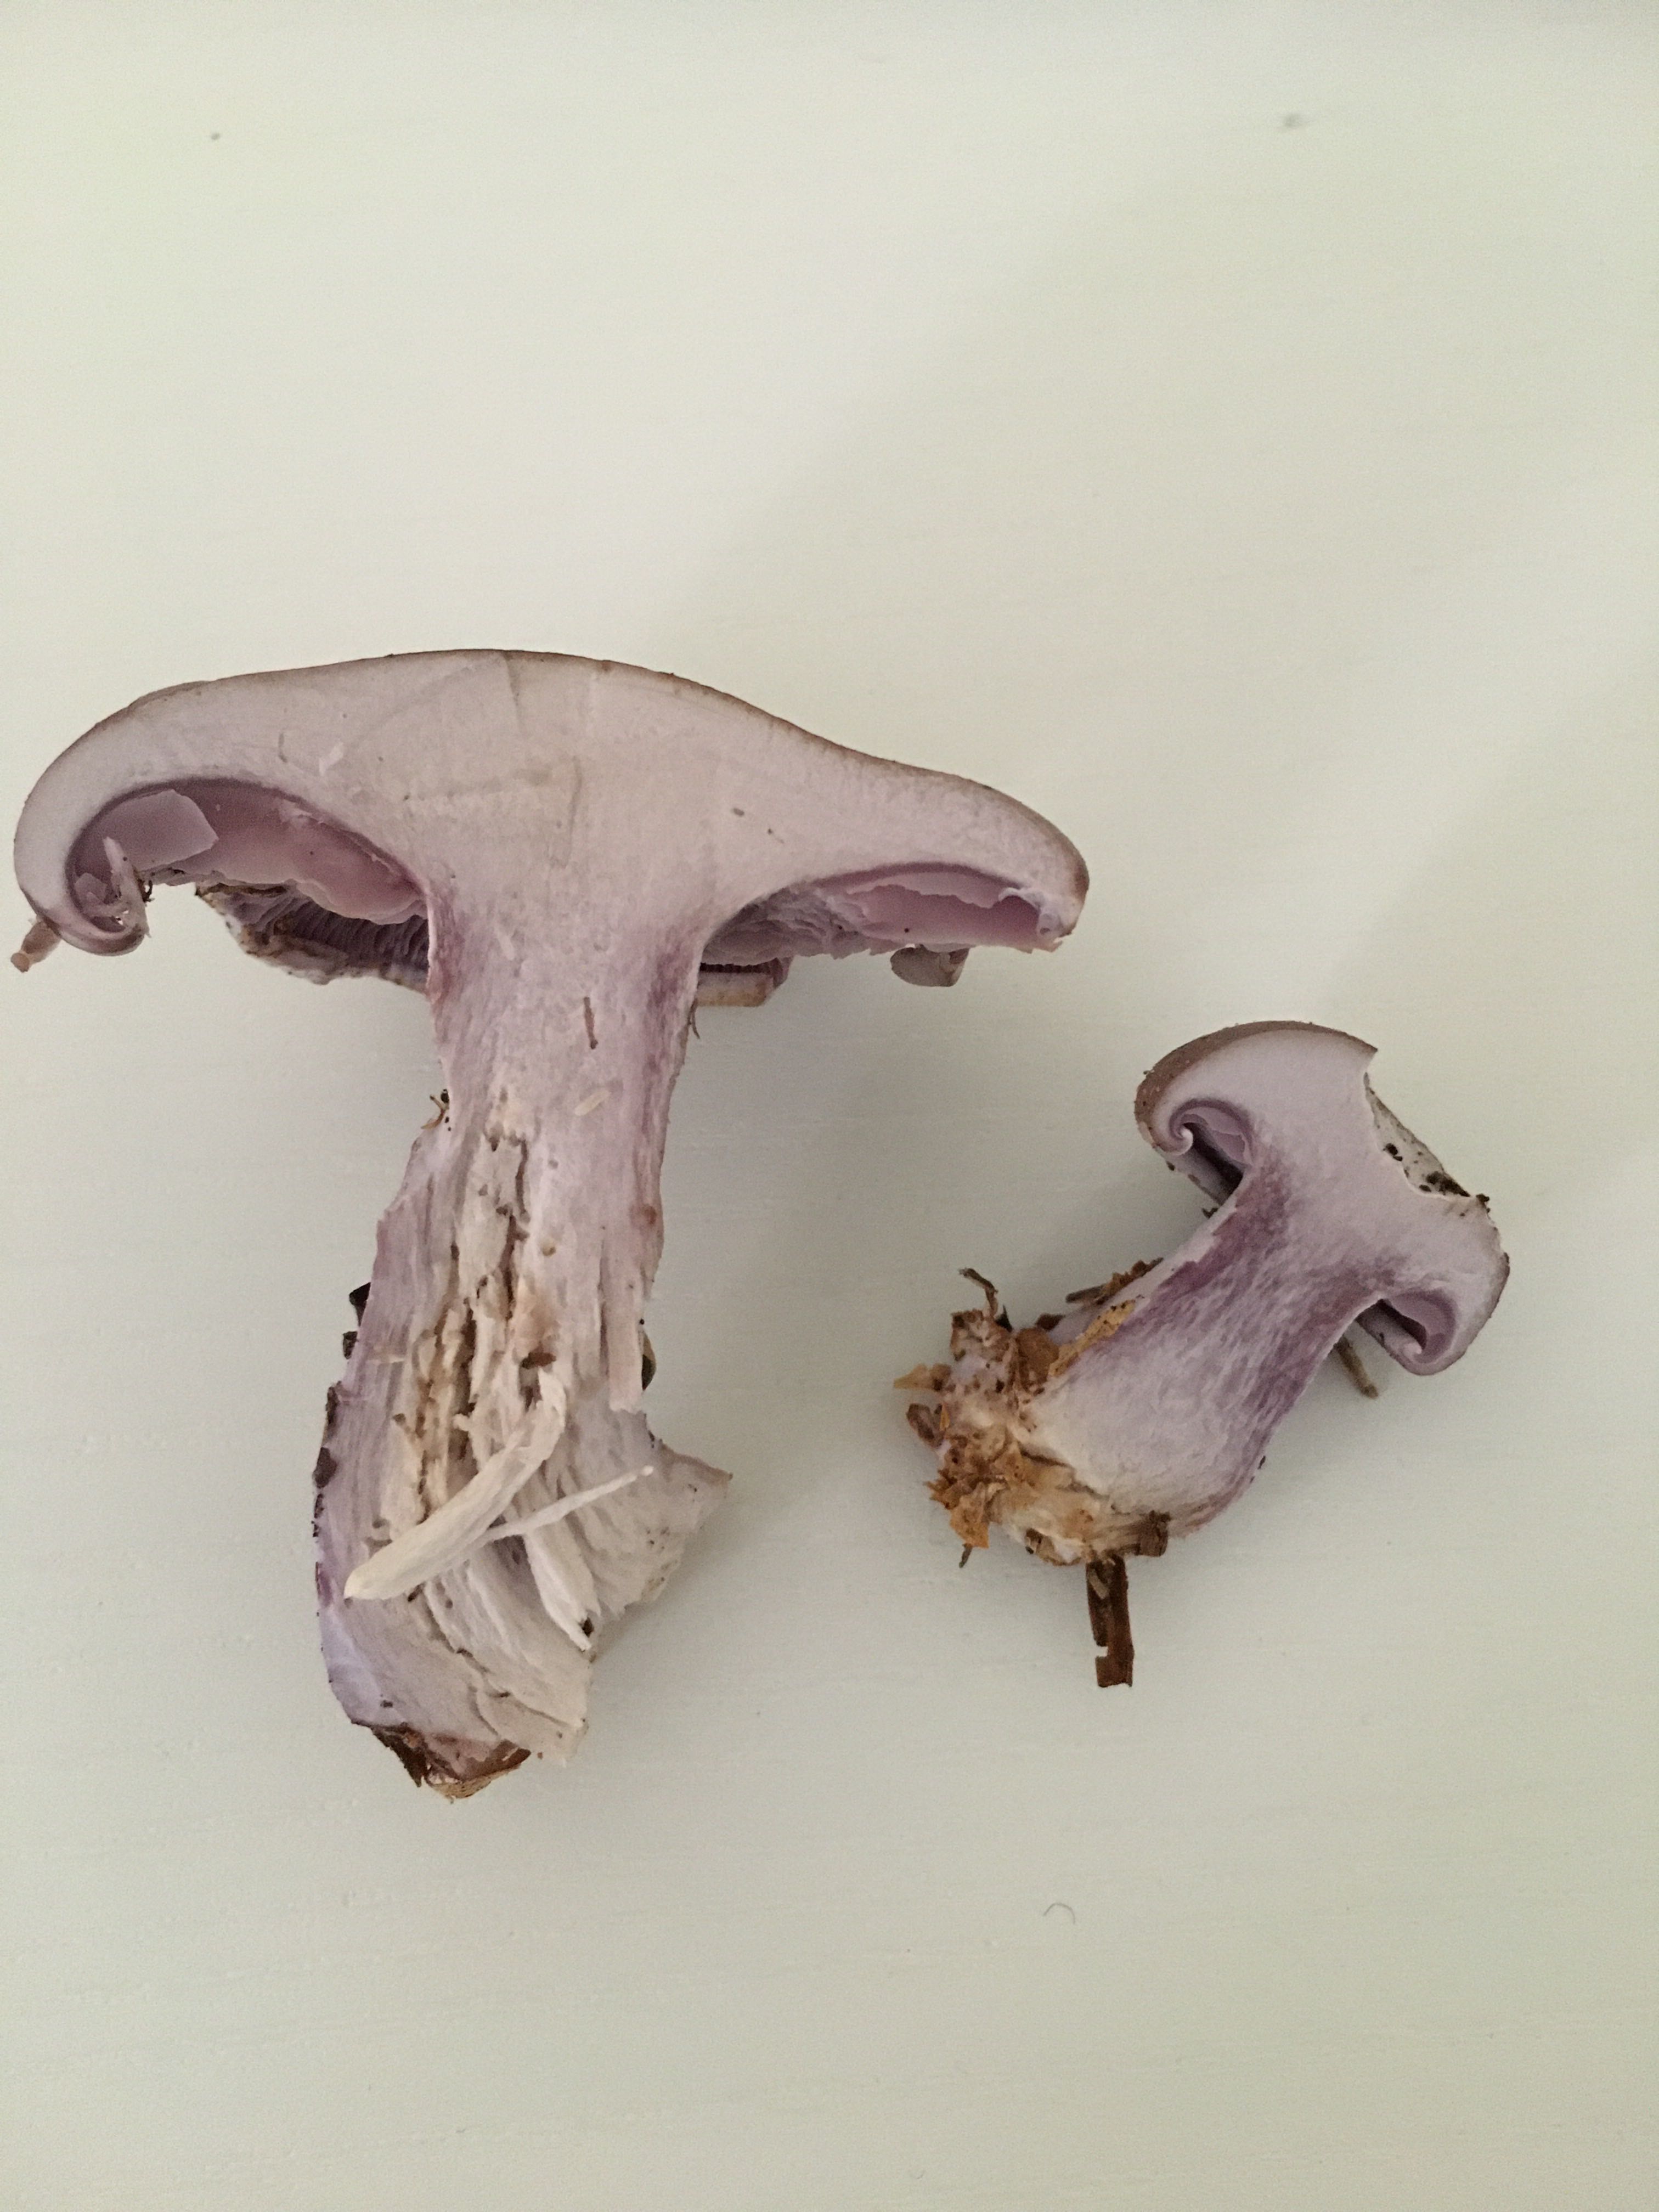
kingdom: Fungi
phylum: Basidiomycota
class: Agaricomycetes
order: Agaricales
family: Tricholomataceae
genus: Lepista
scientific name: Lepista nuda
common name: violet hekseringshat
